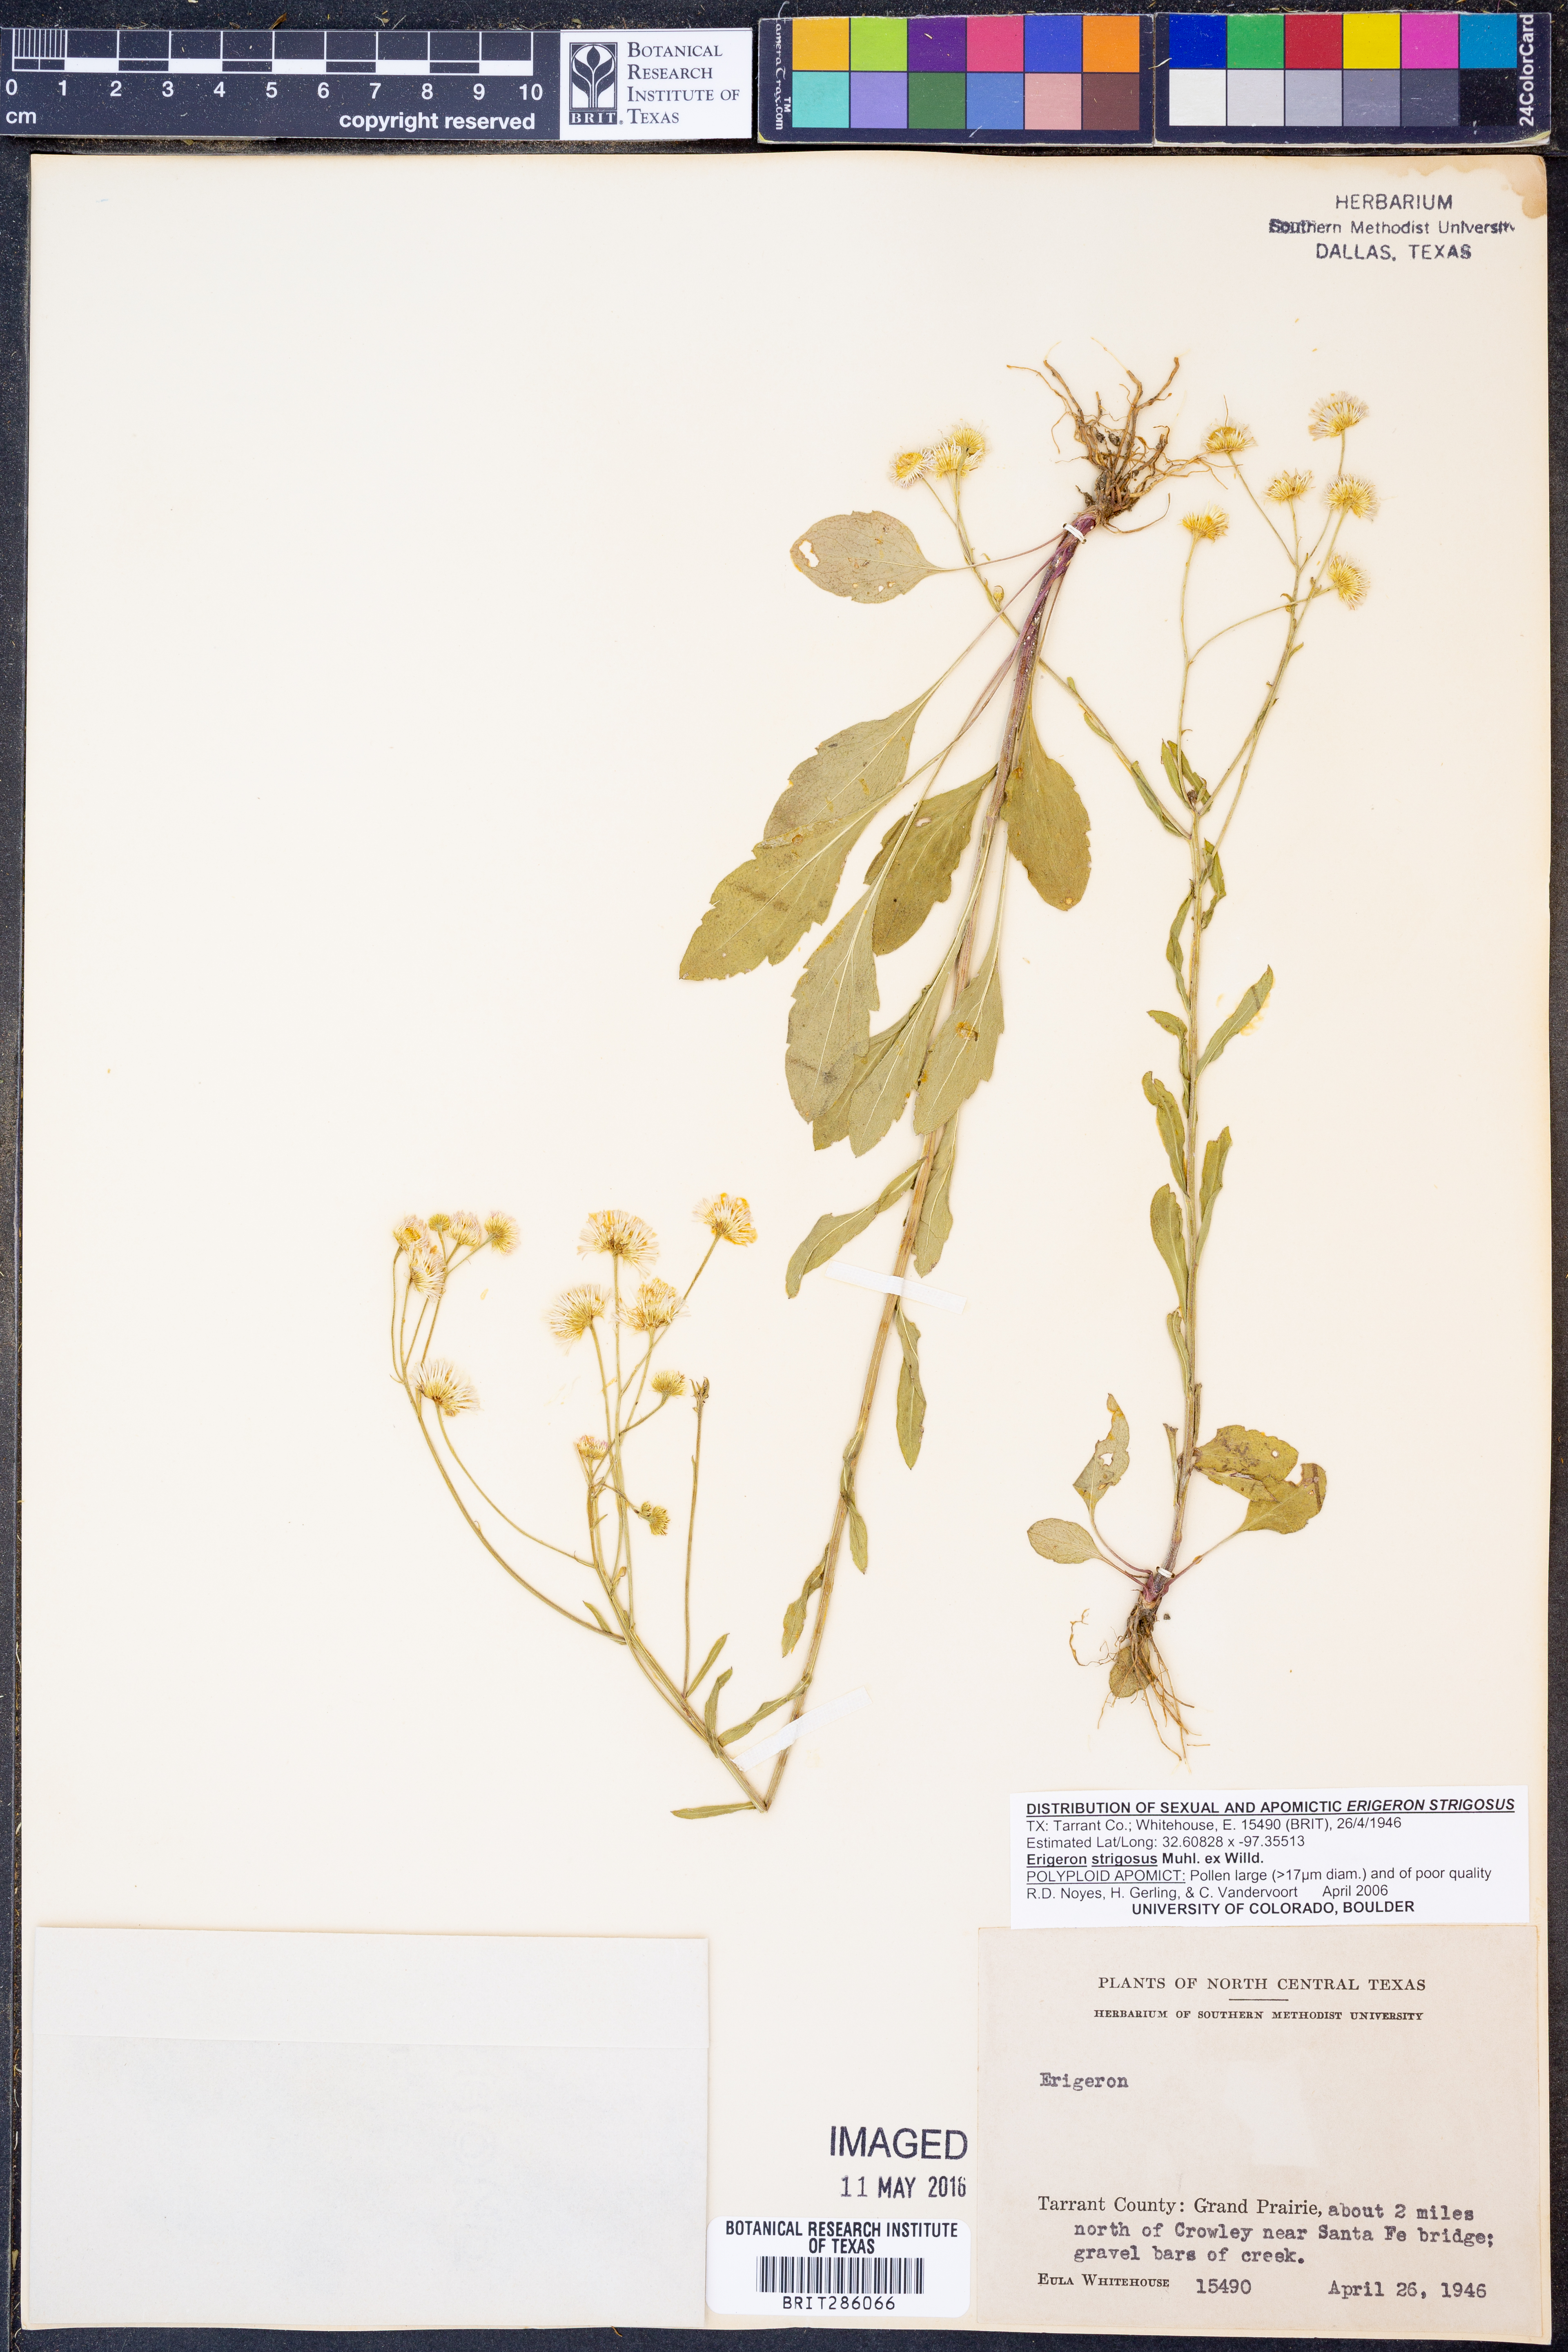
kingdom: Plantae
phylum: Tracheophyta
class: Magnoliopsida
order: Asterales
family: Asteraceae
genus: Erigeron
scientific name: Erigeron strigosus
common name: Common eastern fleabane
